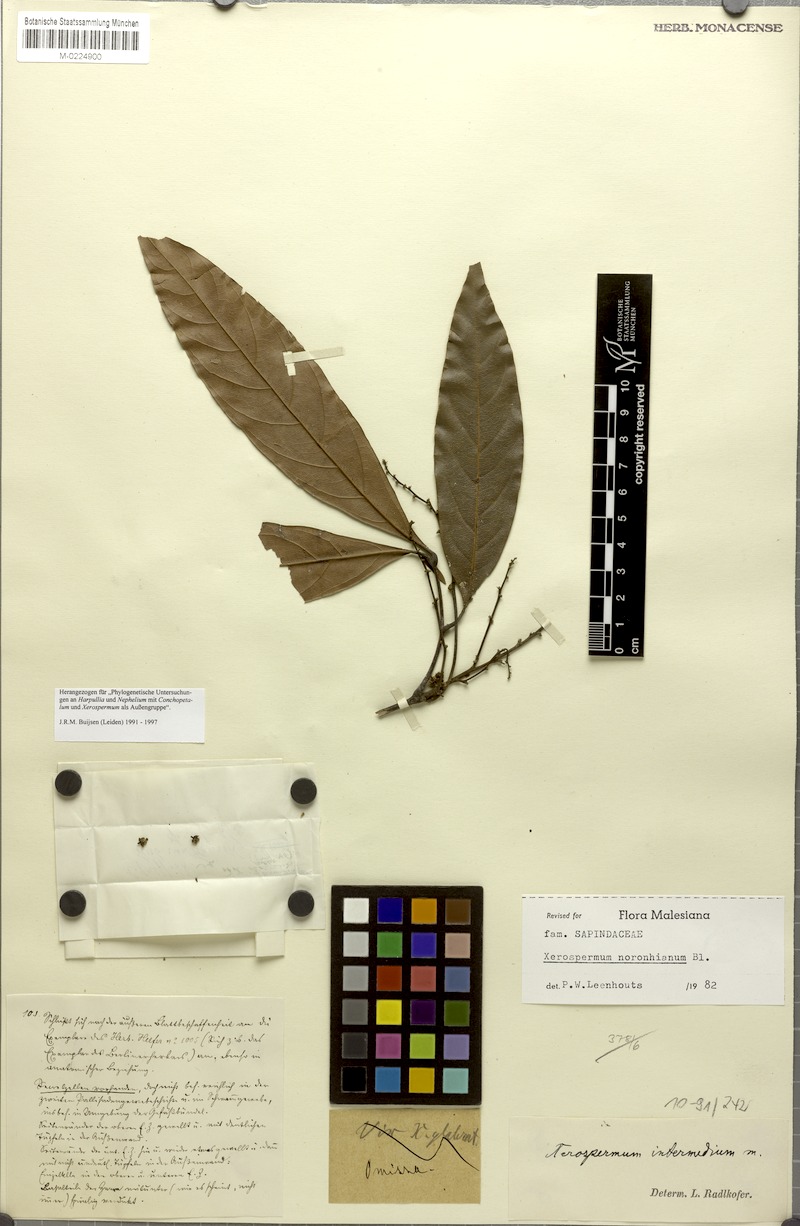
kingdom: Plantae
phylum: Tracheophyta
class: Magnoliopsida
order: Sapindales
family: Sapindaceae
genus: Xerospermum
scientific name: Xerospermum noronhianum
